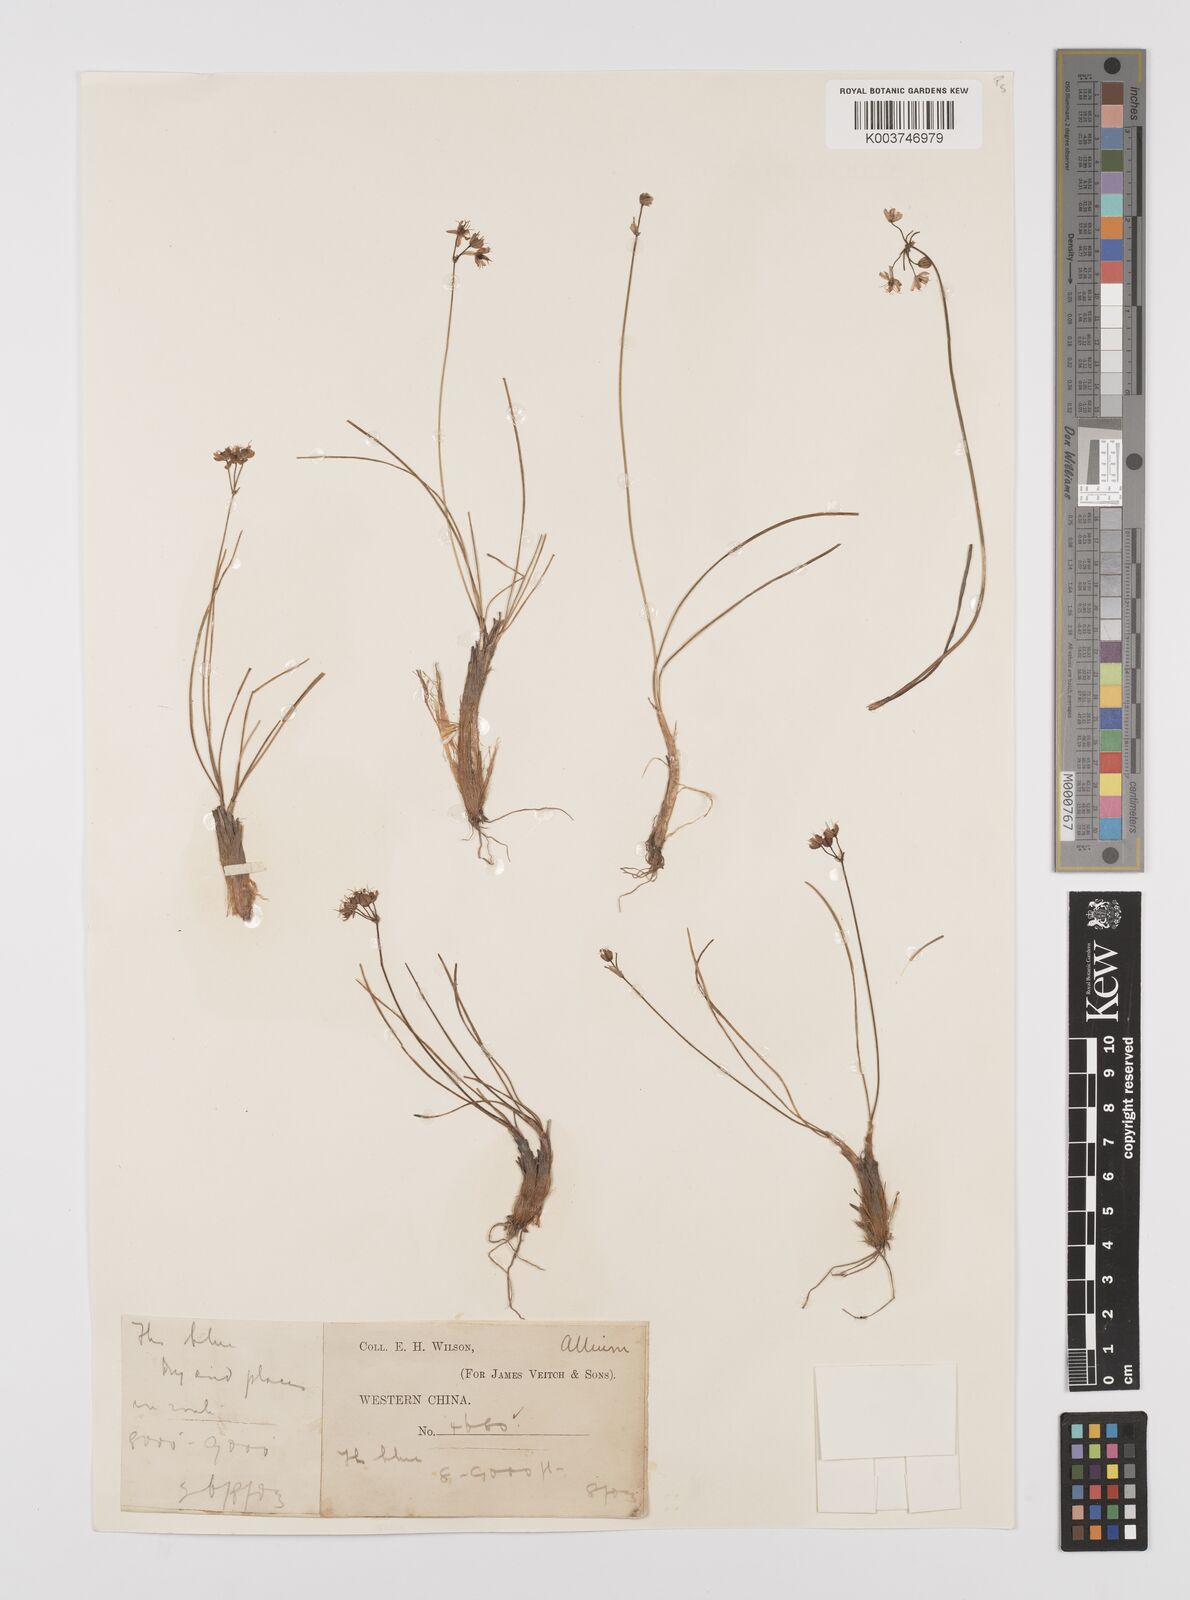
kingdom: Plantae
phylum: Tracheophyta
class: Liliopsida
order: Asparagales
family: Amaryllidaceae
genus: Allium
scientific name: Allium
